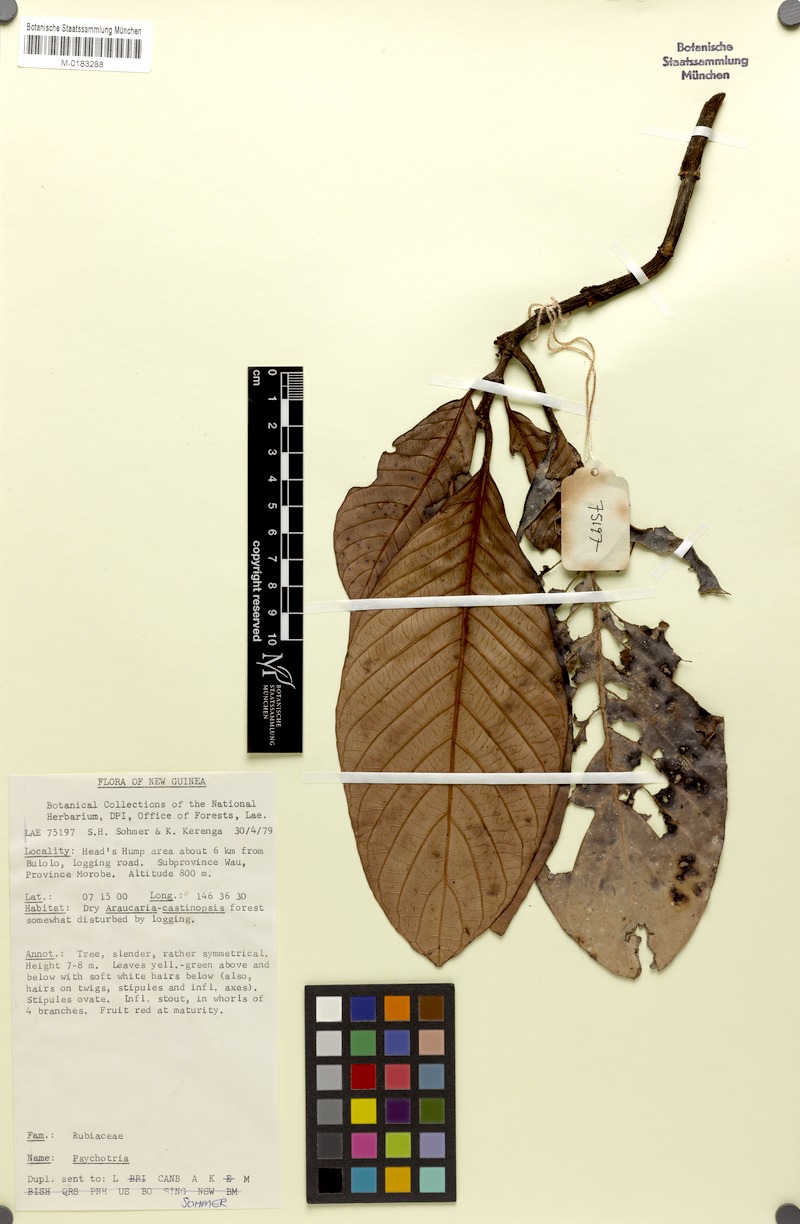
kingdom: Plantae
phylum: Tracheophyta
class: Magnoliopsida
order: Gentianales
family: Rubiaceae
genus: Psychotria
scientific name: Psychotria hentyi
